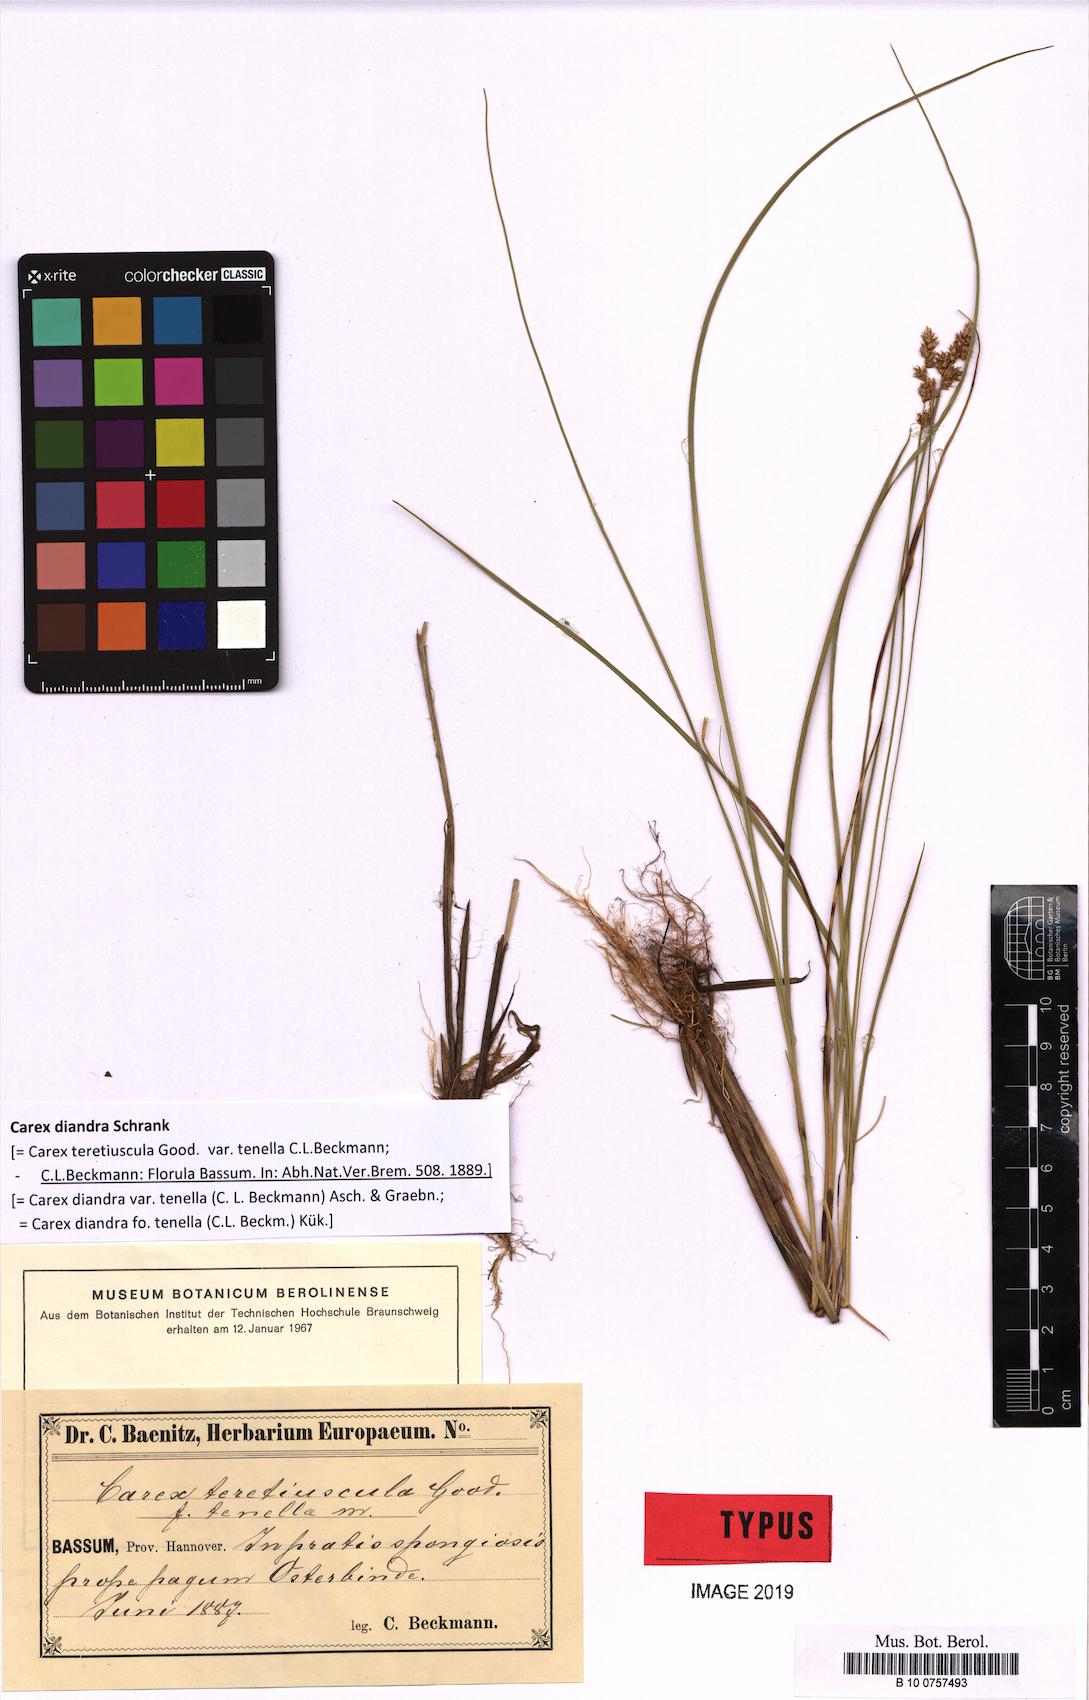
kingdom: Plantae
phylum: Tracheophyta
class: Liliopsida
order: Poales
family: Cyperaceae
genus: Carex
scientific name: Carex diandra
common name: Lesser tussock-sedge
